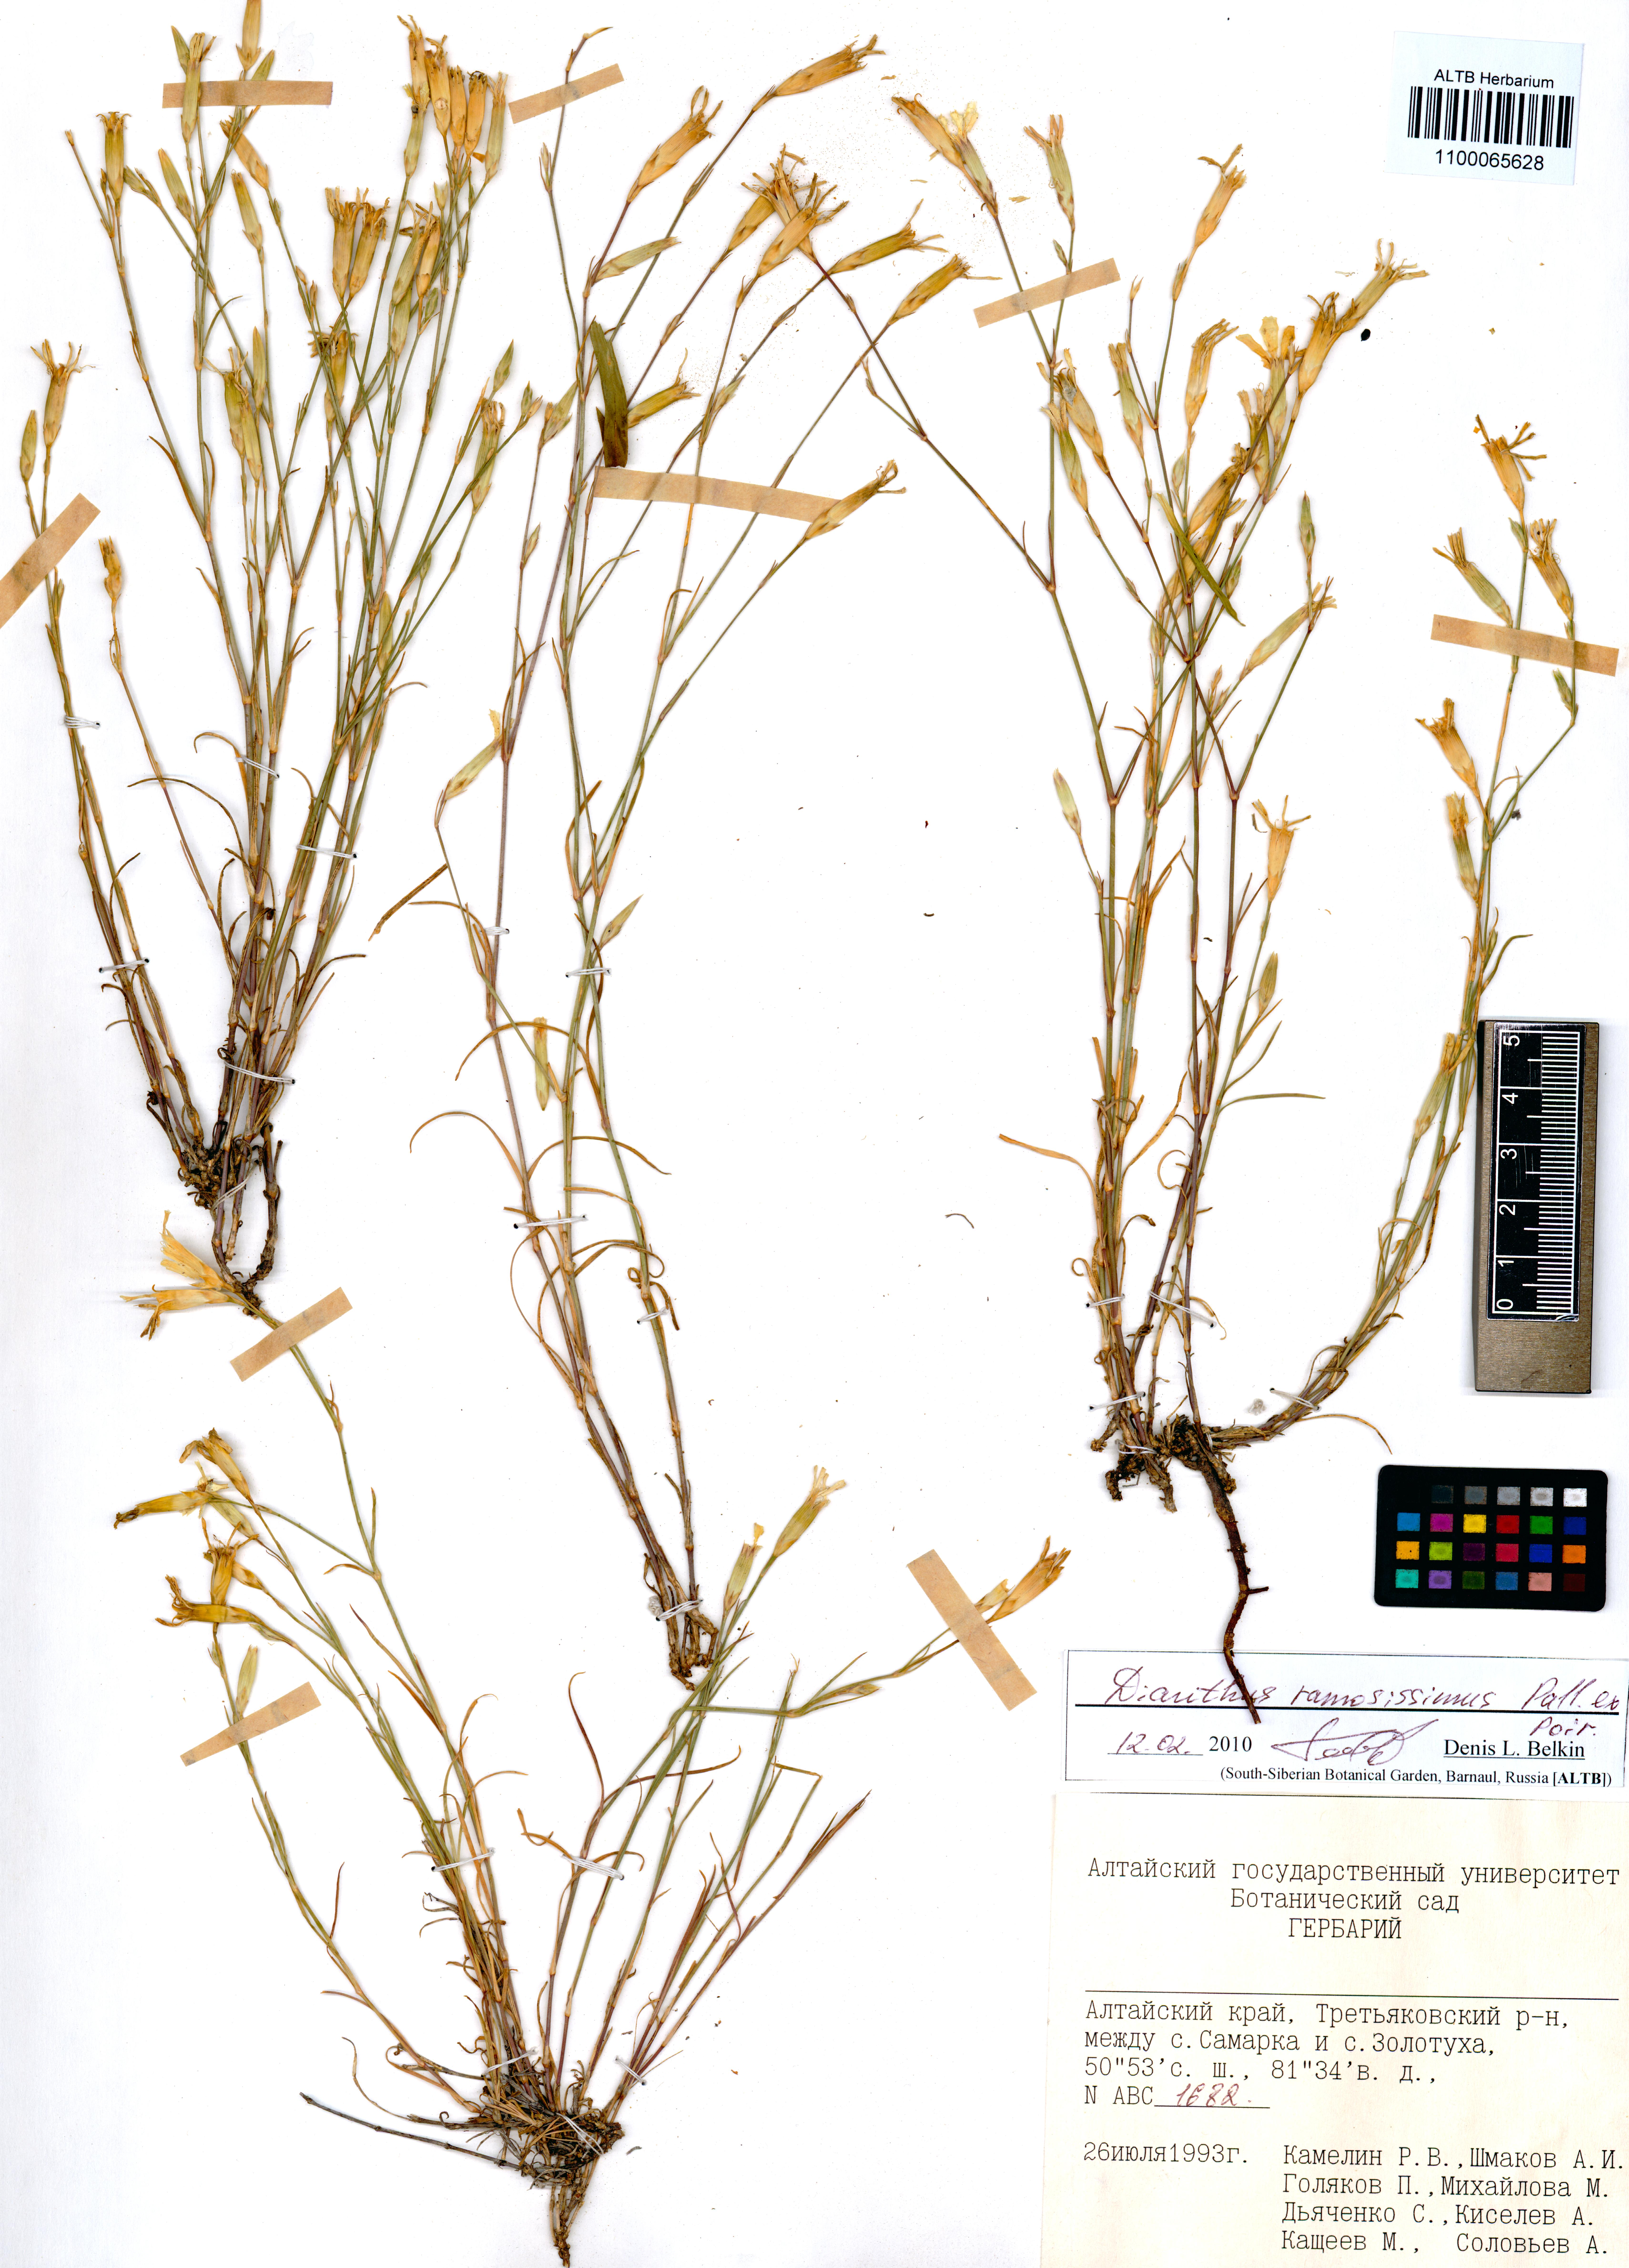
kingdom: Plantae
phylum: Tracheophyta
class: Magnoliopsida
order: Caryophyllales
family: Caryophyllaceae
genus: Dianthus
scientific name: Dianthus ramosissimus
